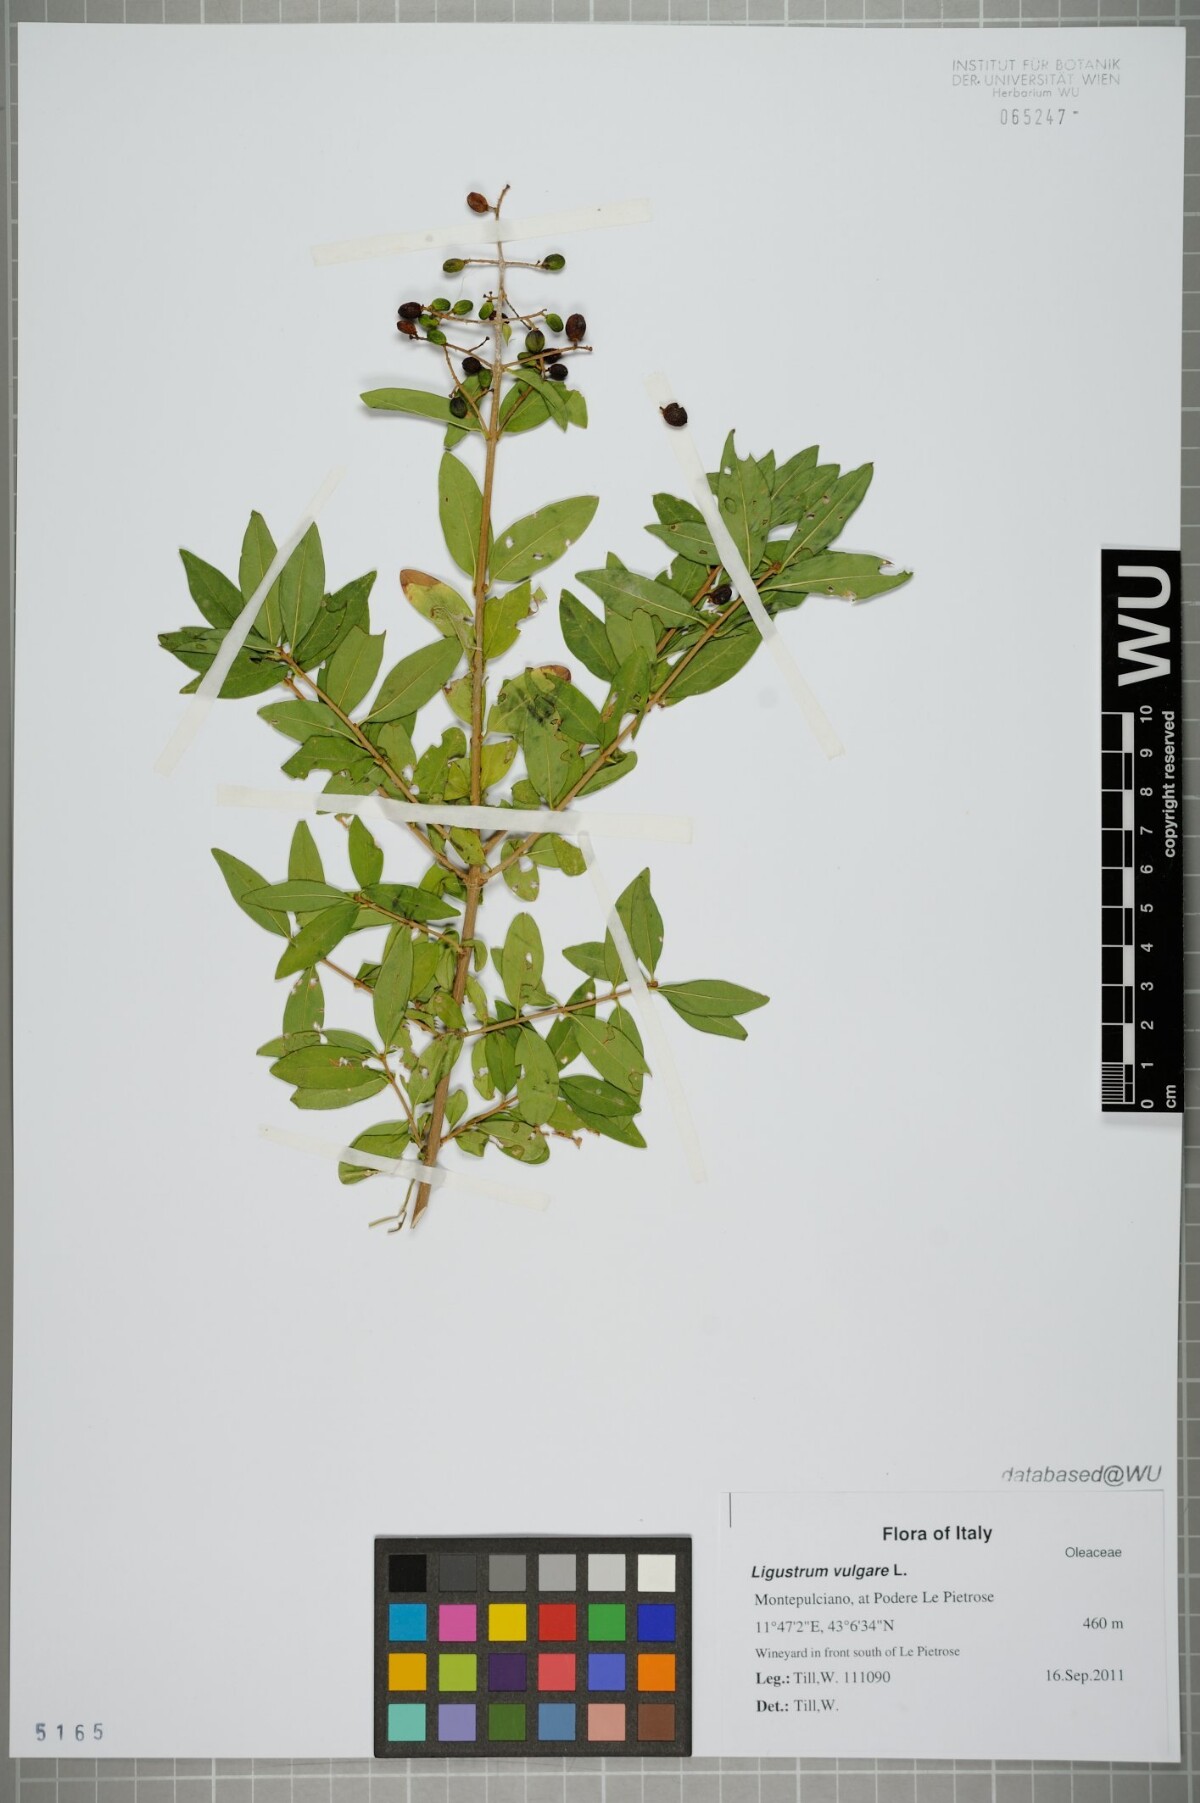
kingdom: Plantae
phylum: Tracheophyta
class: Magnoliopsida
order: Lamiales
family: Oleaceae
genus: Ligustrum
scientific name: Ligustrum vulgare
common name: Wild privet
